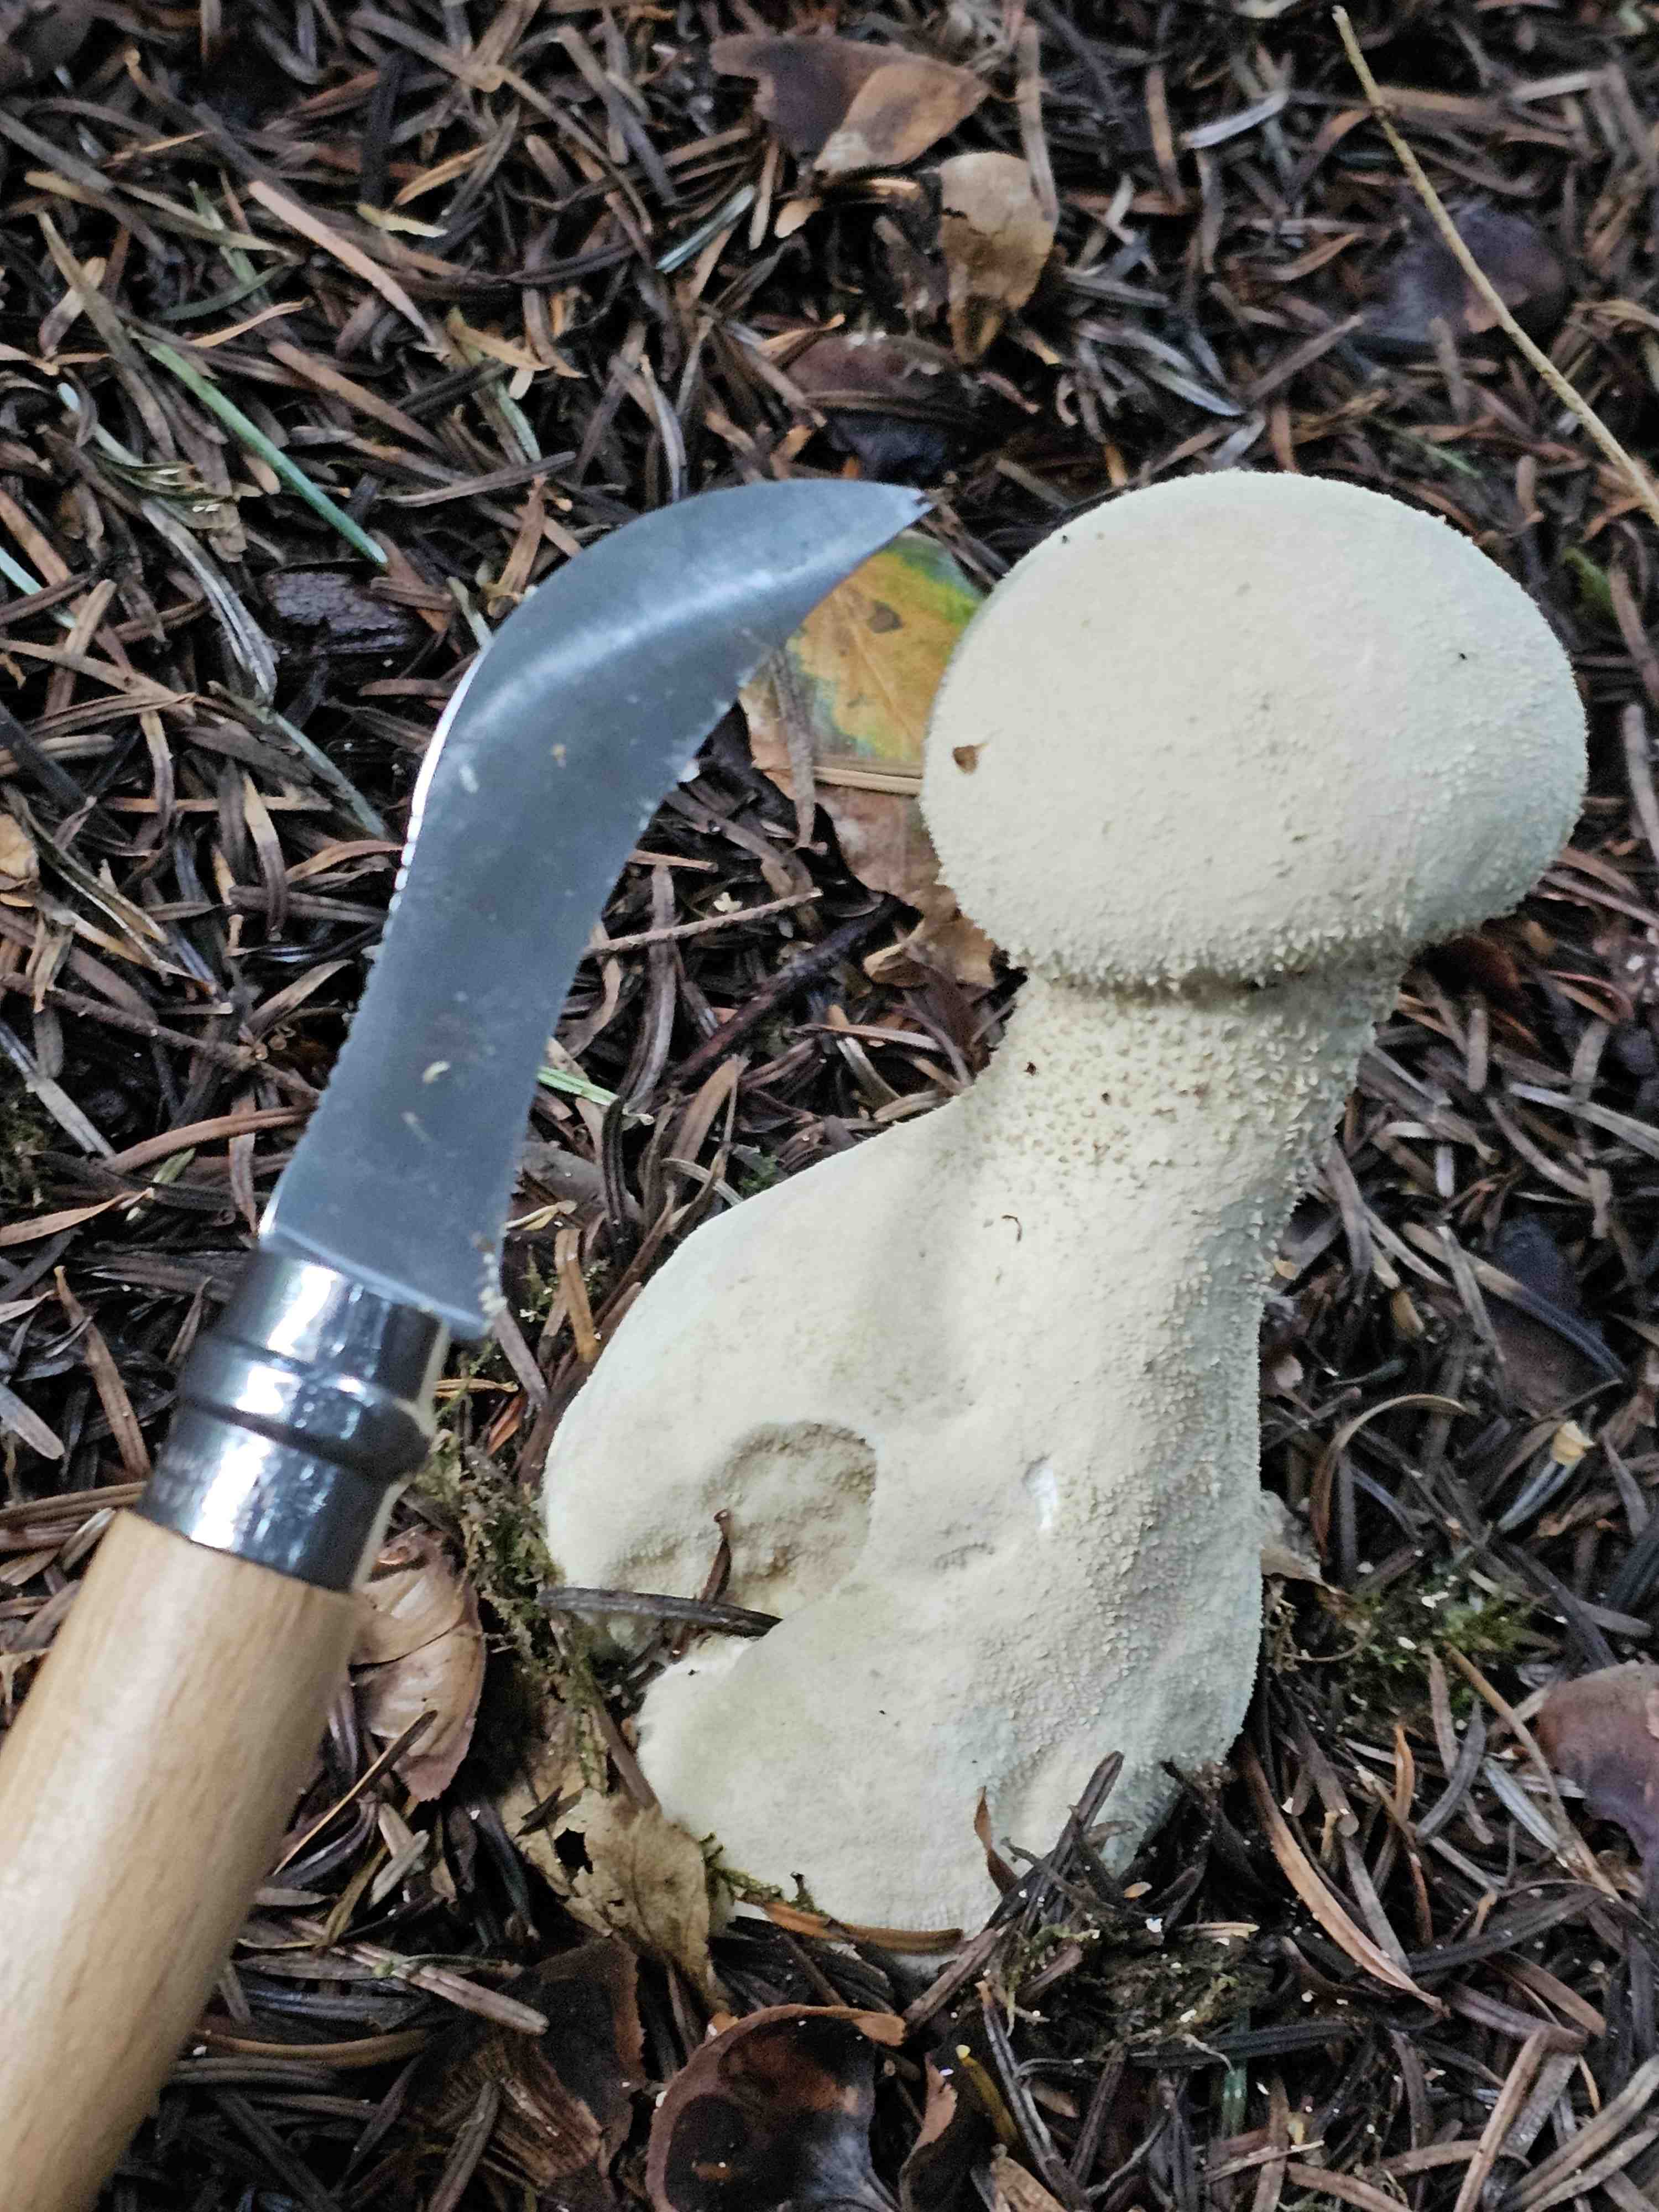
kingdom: Fungi
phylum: Basidiomycota
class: Agaricomycetes
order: Agaricales
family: Lycoperdaceae
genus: Lycoperdon
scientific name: Lycoperdon excipuliforme
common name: højstokket støvbold
